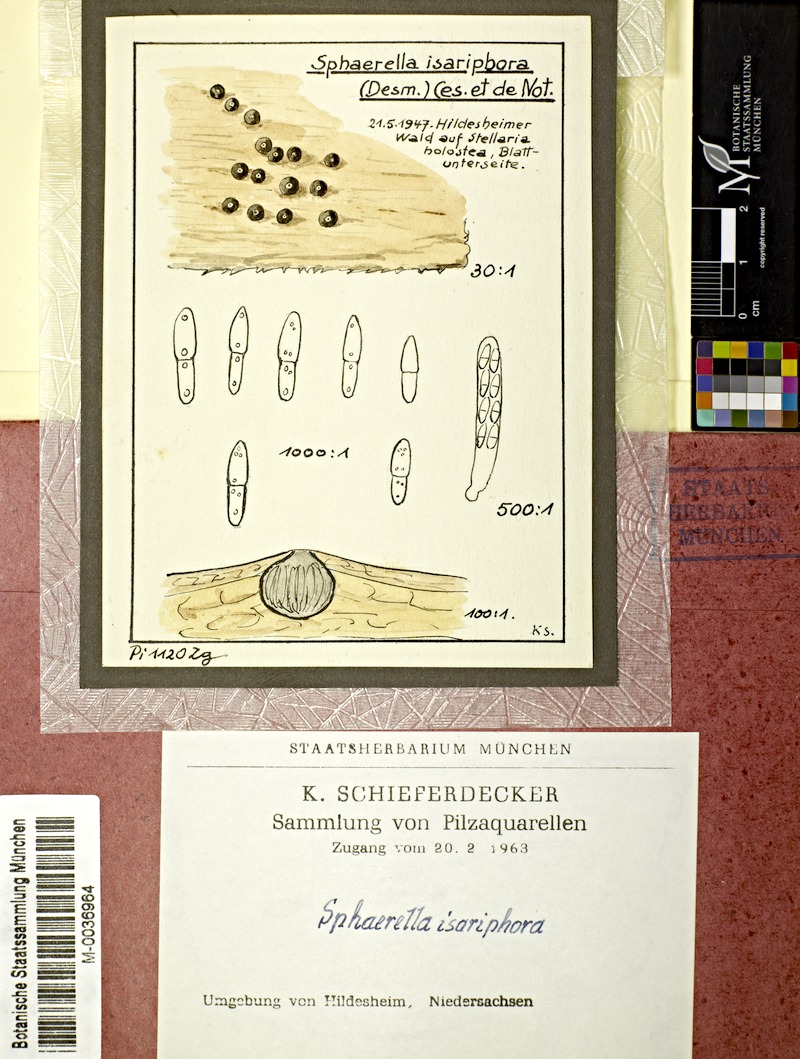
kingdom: Plantae
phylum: Tracheophyta
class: Magnoliopsida
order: Caryophyllales
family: Caryophyllaceae
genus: Rabelera
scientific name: Rabelera holostea
